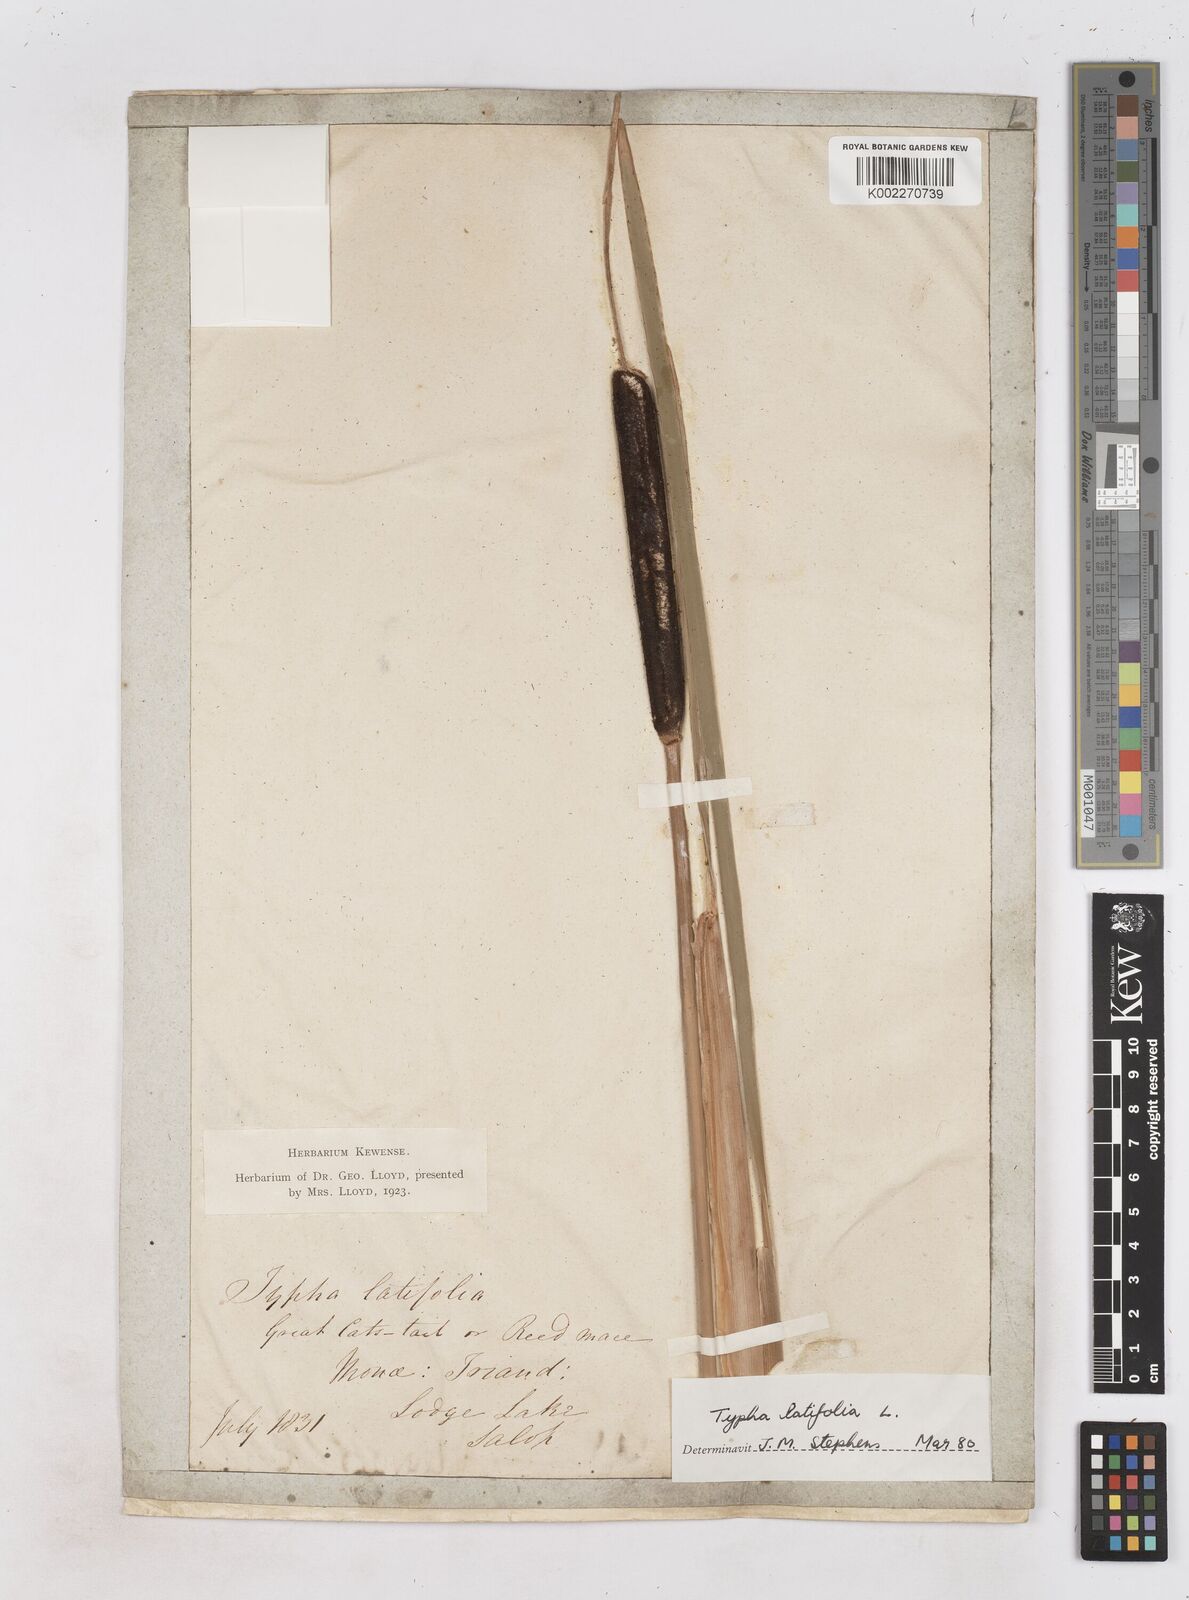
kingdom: Plantae
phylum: Tracheophyta
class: Liliopsida
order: Poales
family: Typhaceae
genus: Typha
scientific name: Typha latifolia
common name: Broadleaf cattail
